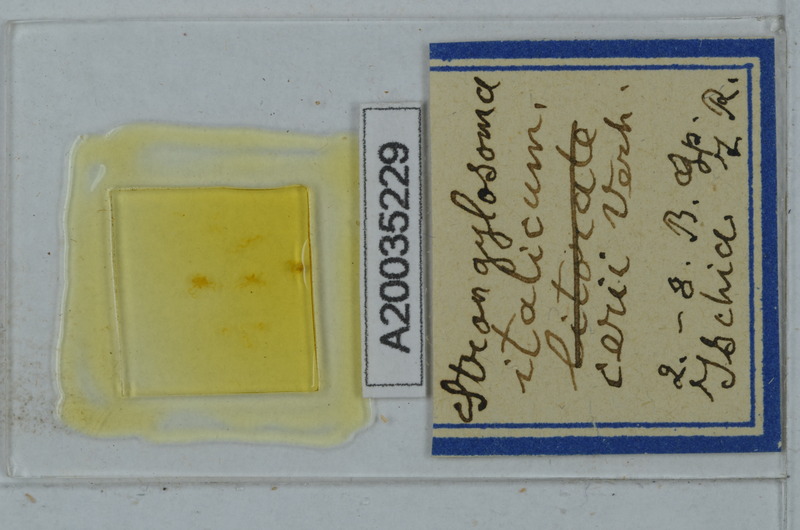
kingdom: Animalia
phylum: Arthropoda
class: Diplopoda
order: Polydesmida
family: Paradoxosomatidae
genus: Strongylosoma
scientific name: Strongylosoma italica
